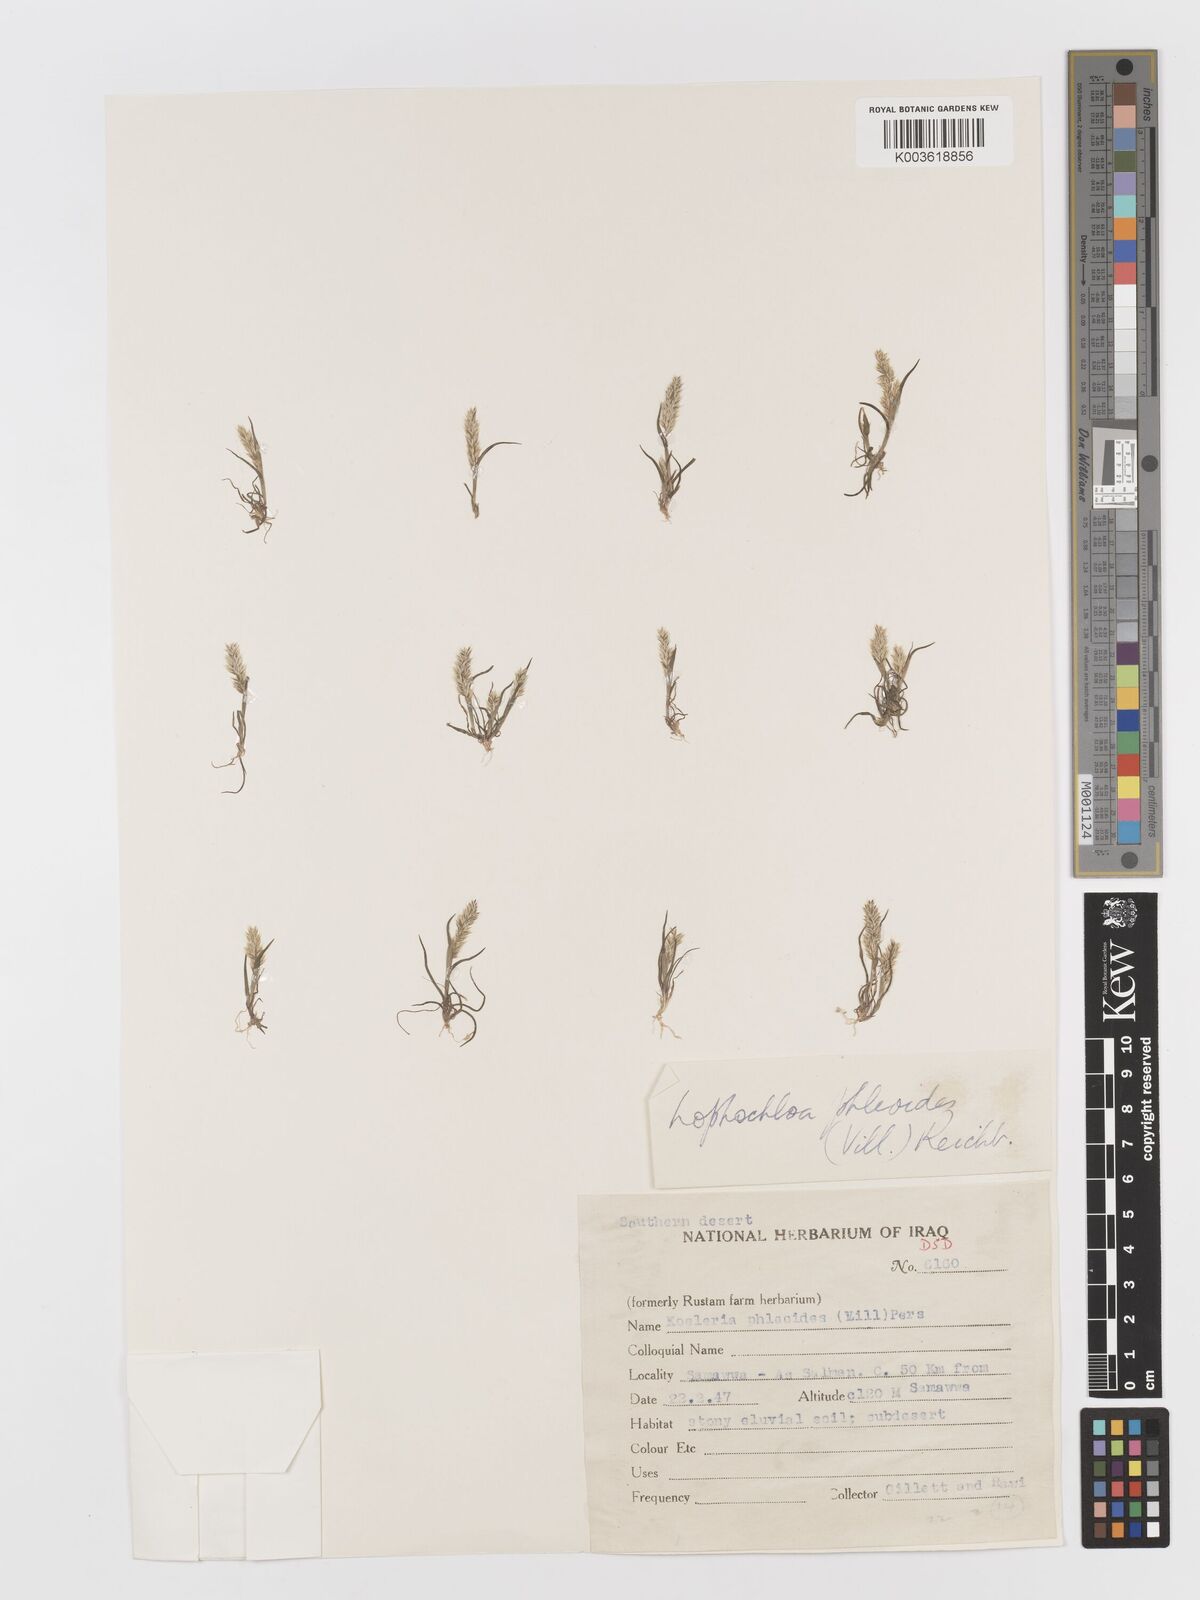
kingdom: Plantae
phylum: Tracheophyta
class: Liliopsida
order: Poales
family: Poaceae
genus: Rostraria
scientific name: Rostraria cristata
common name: Mediterranean hair-grass
